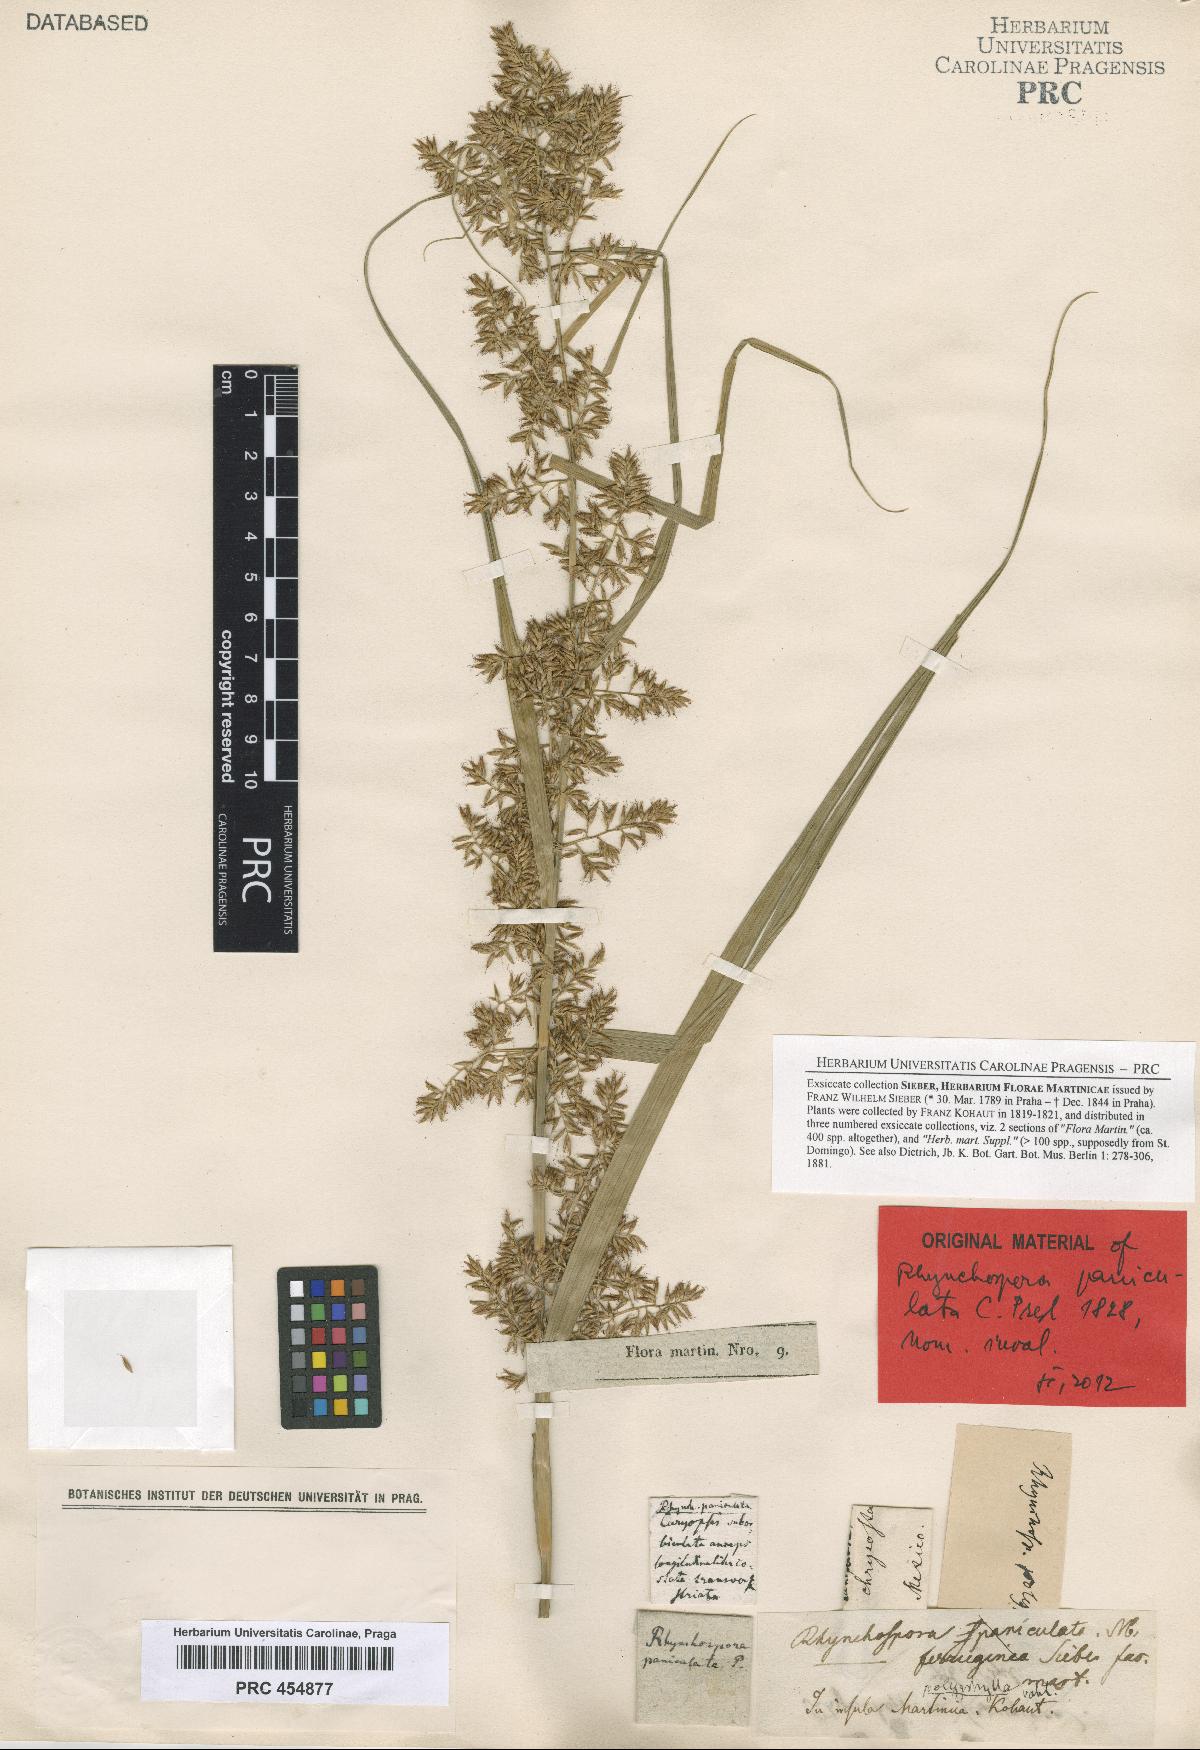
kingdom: Plantae
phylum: Tracheophyta
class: Liliopsida
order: Poales
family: Cyperaceae
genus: Rhynchospora
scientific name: Rhynchospora polyphylla
